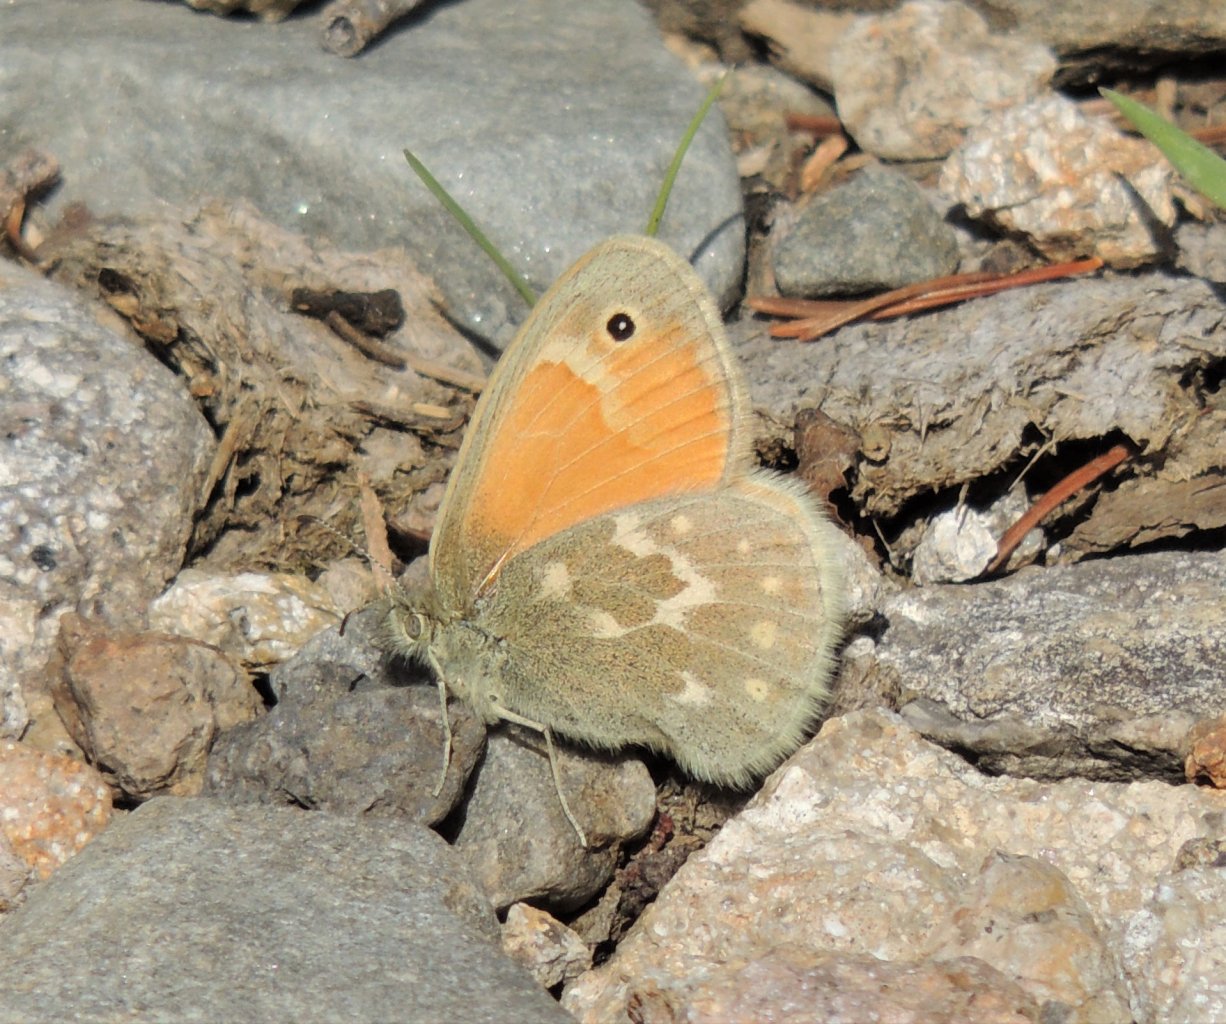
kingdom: Animalia
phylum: Arthropoda
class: Insecta
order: Lepidoptera
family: Nymphalidae
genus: Coenonympha
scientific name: Coenonympha tullia
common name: Large Heath
